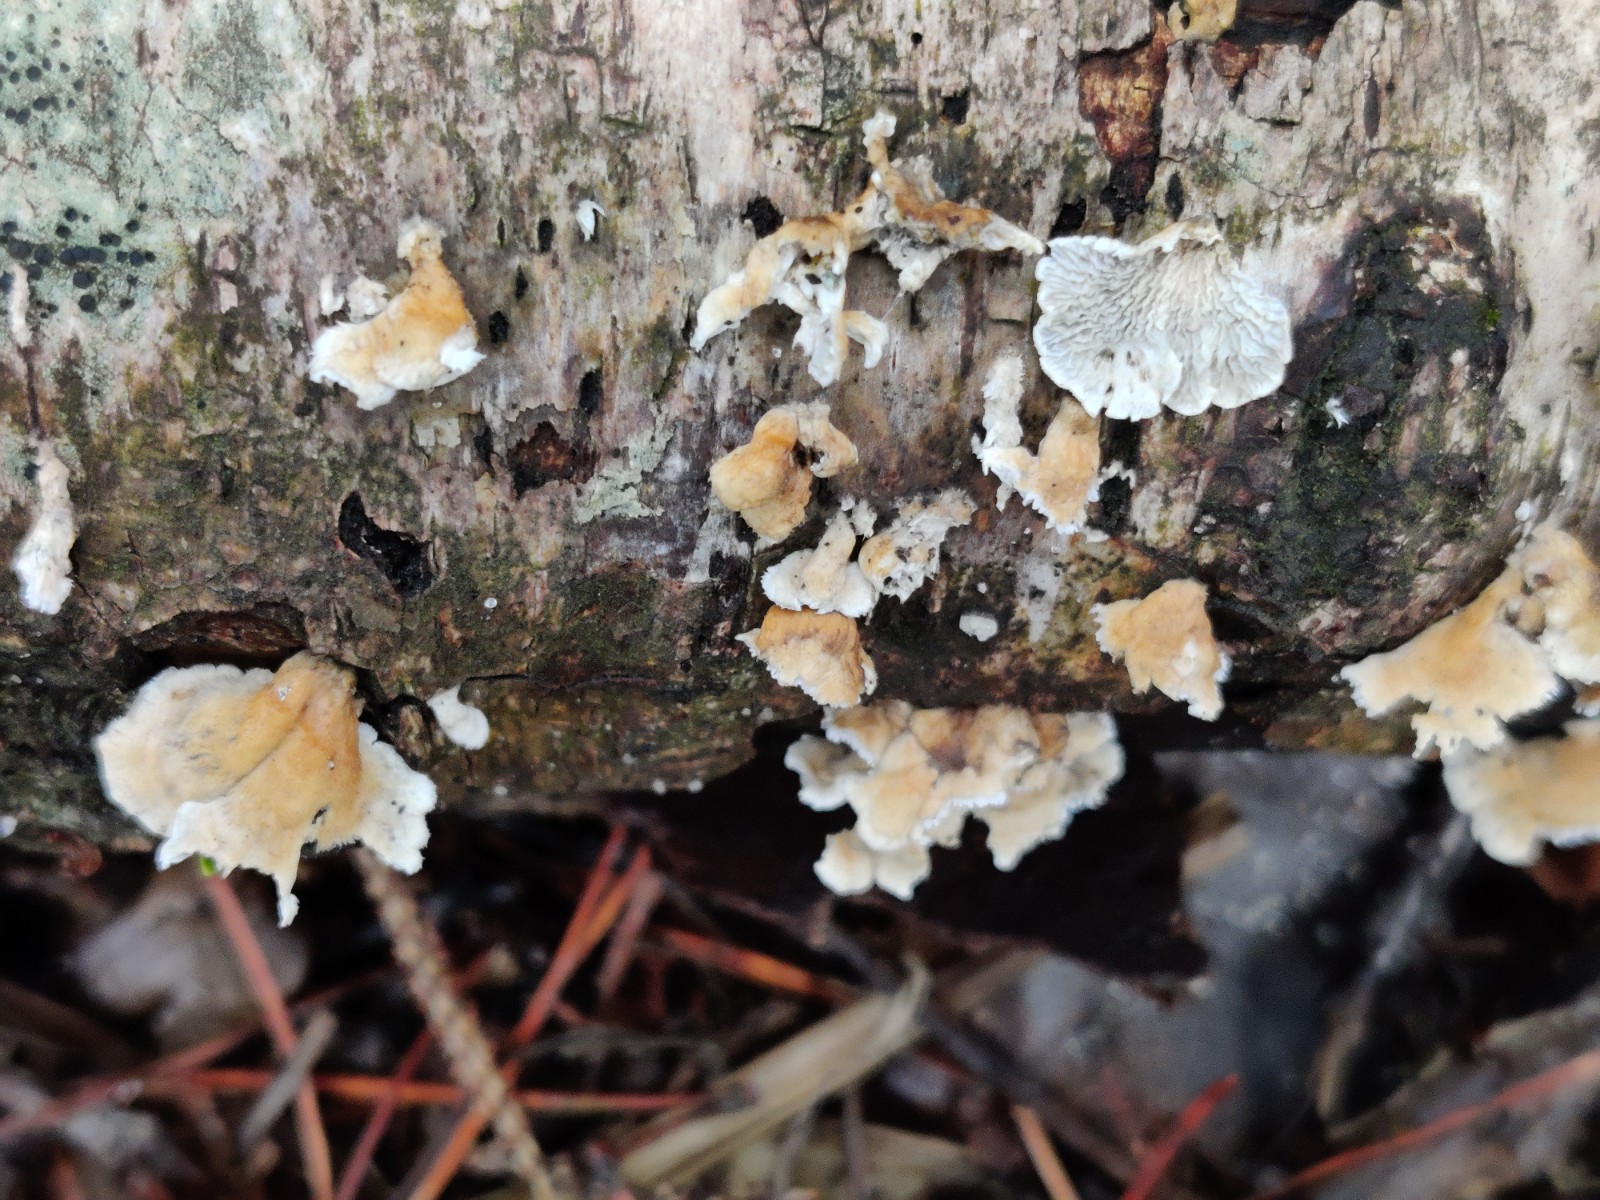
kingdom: Fungi
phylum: Basidiomycota
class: Agaricomycetes
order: Amylocorticiales
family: Amylocorticiaceae
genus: Plicaturopsis
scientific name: Plicaturopsis crispa
